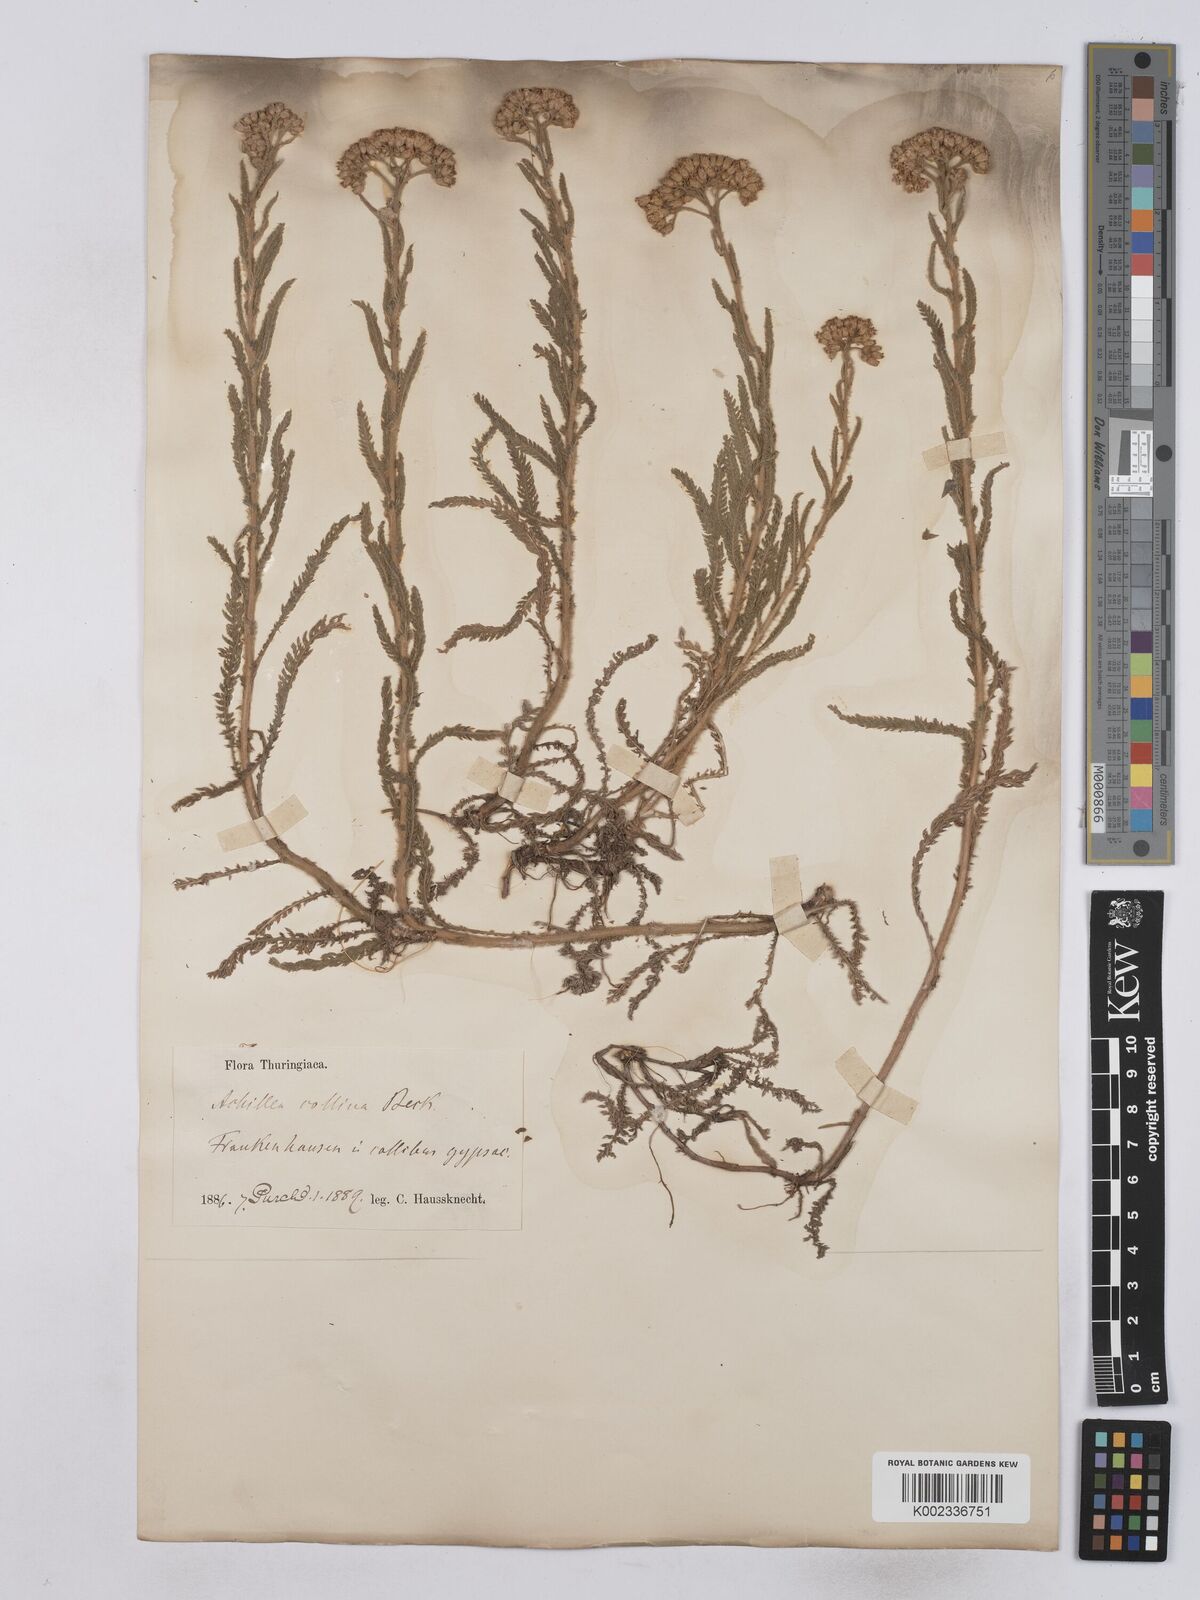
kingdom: Plantae
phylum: Tracheophyta
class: Magnoliopsida
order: Asterales
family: Asteraceae
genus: Achillea
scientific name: Achillea setacea
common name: Bristly yarrow
